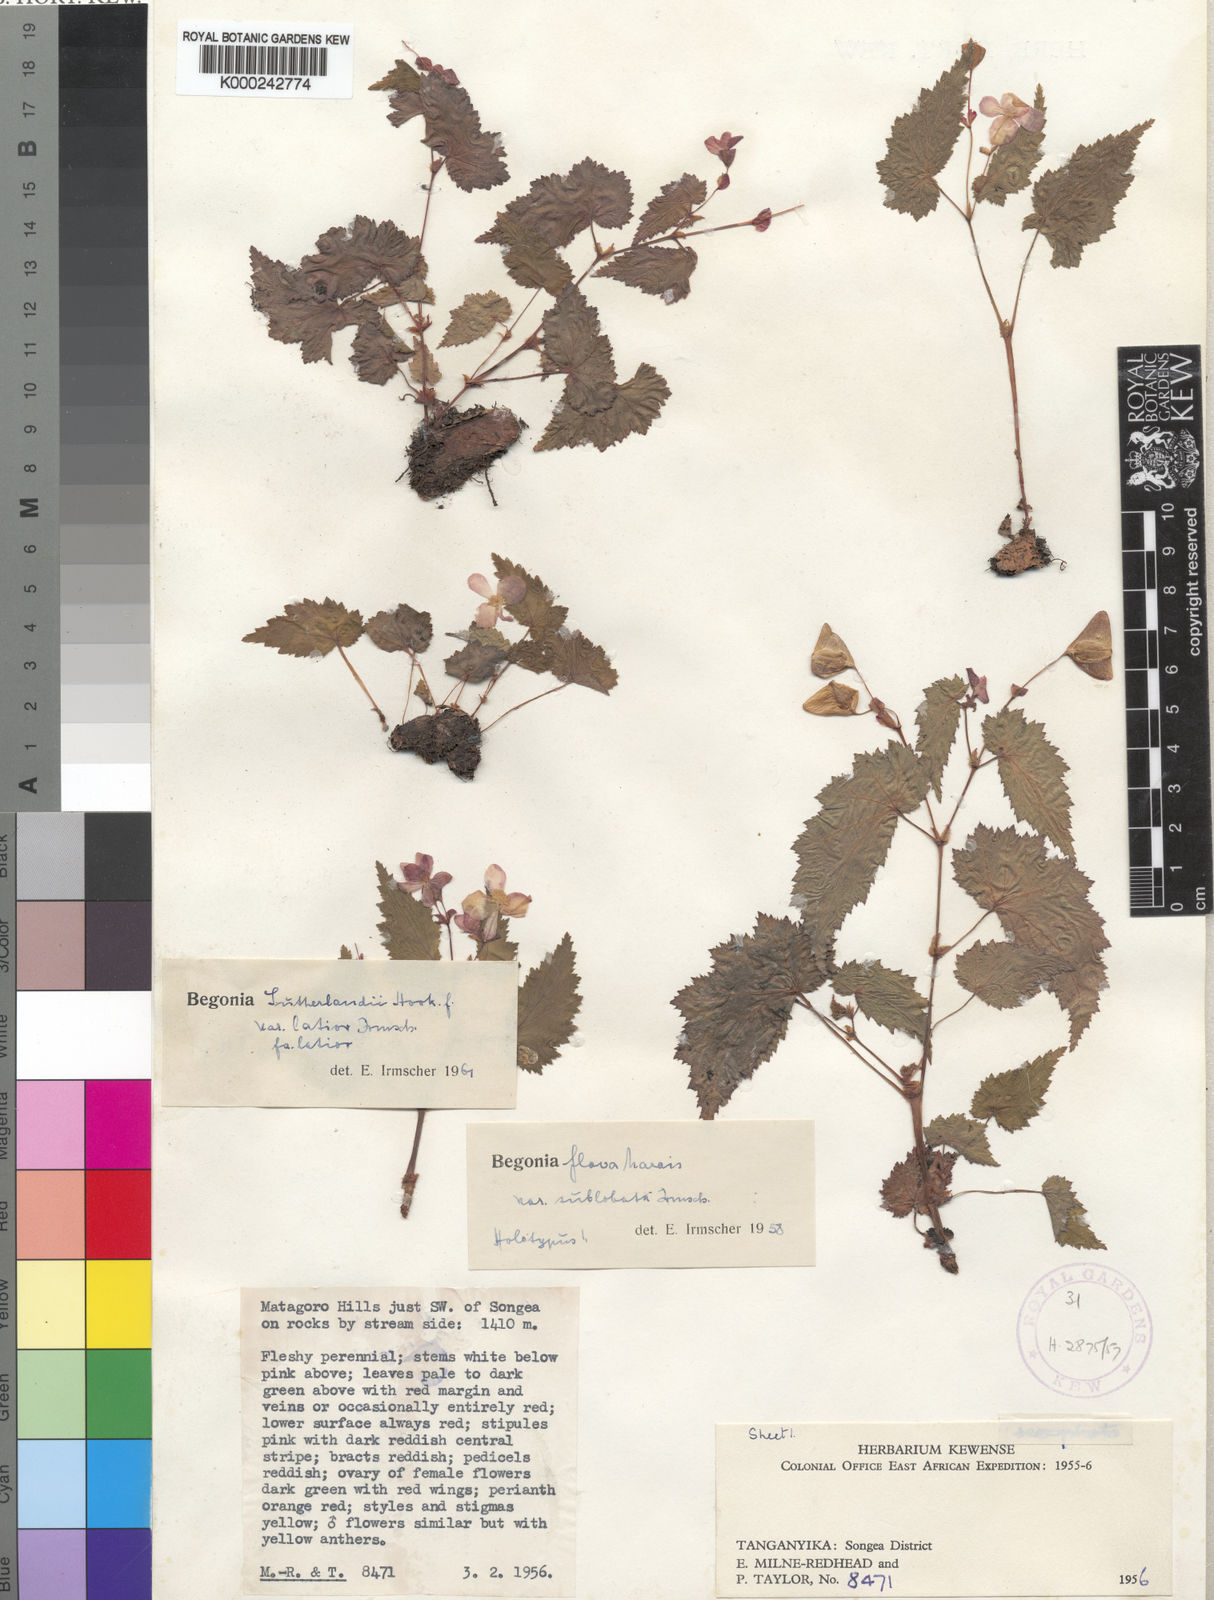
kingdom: Plantae
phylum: Tracheophyta
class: Magnoliopsida
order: Cucurbitales
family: Begoniaceae
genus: Begonia
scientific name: Begonia sutherlandii
